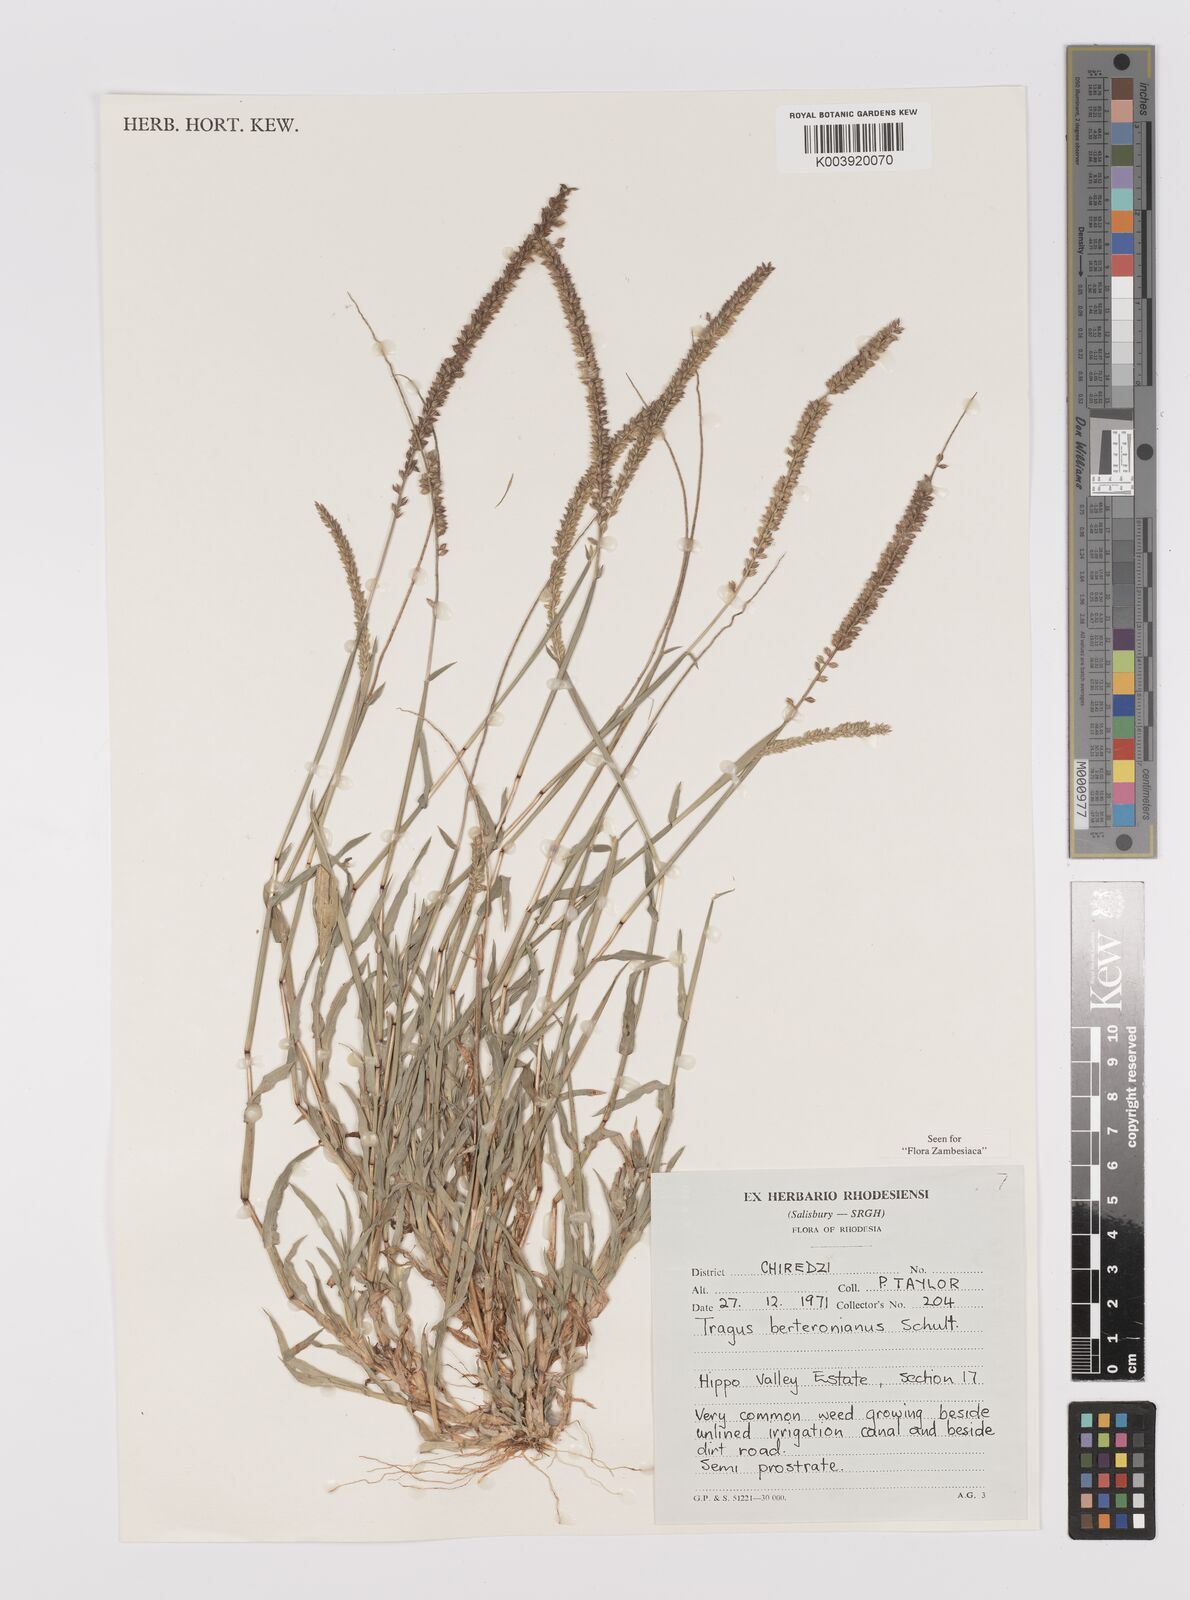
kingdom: Plantae
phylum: Tracheophyta
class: Liliopsida
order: Poales
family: Poaceae
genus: Tragus
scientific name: Tragus berteronianus
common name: African bur-grass
